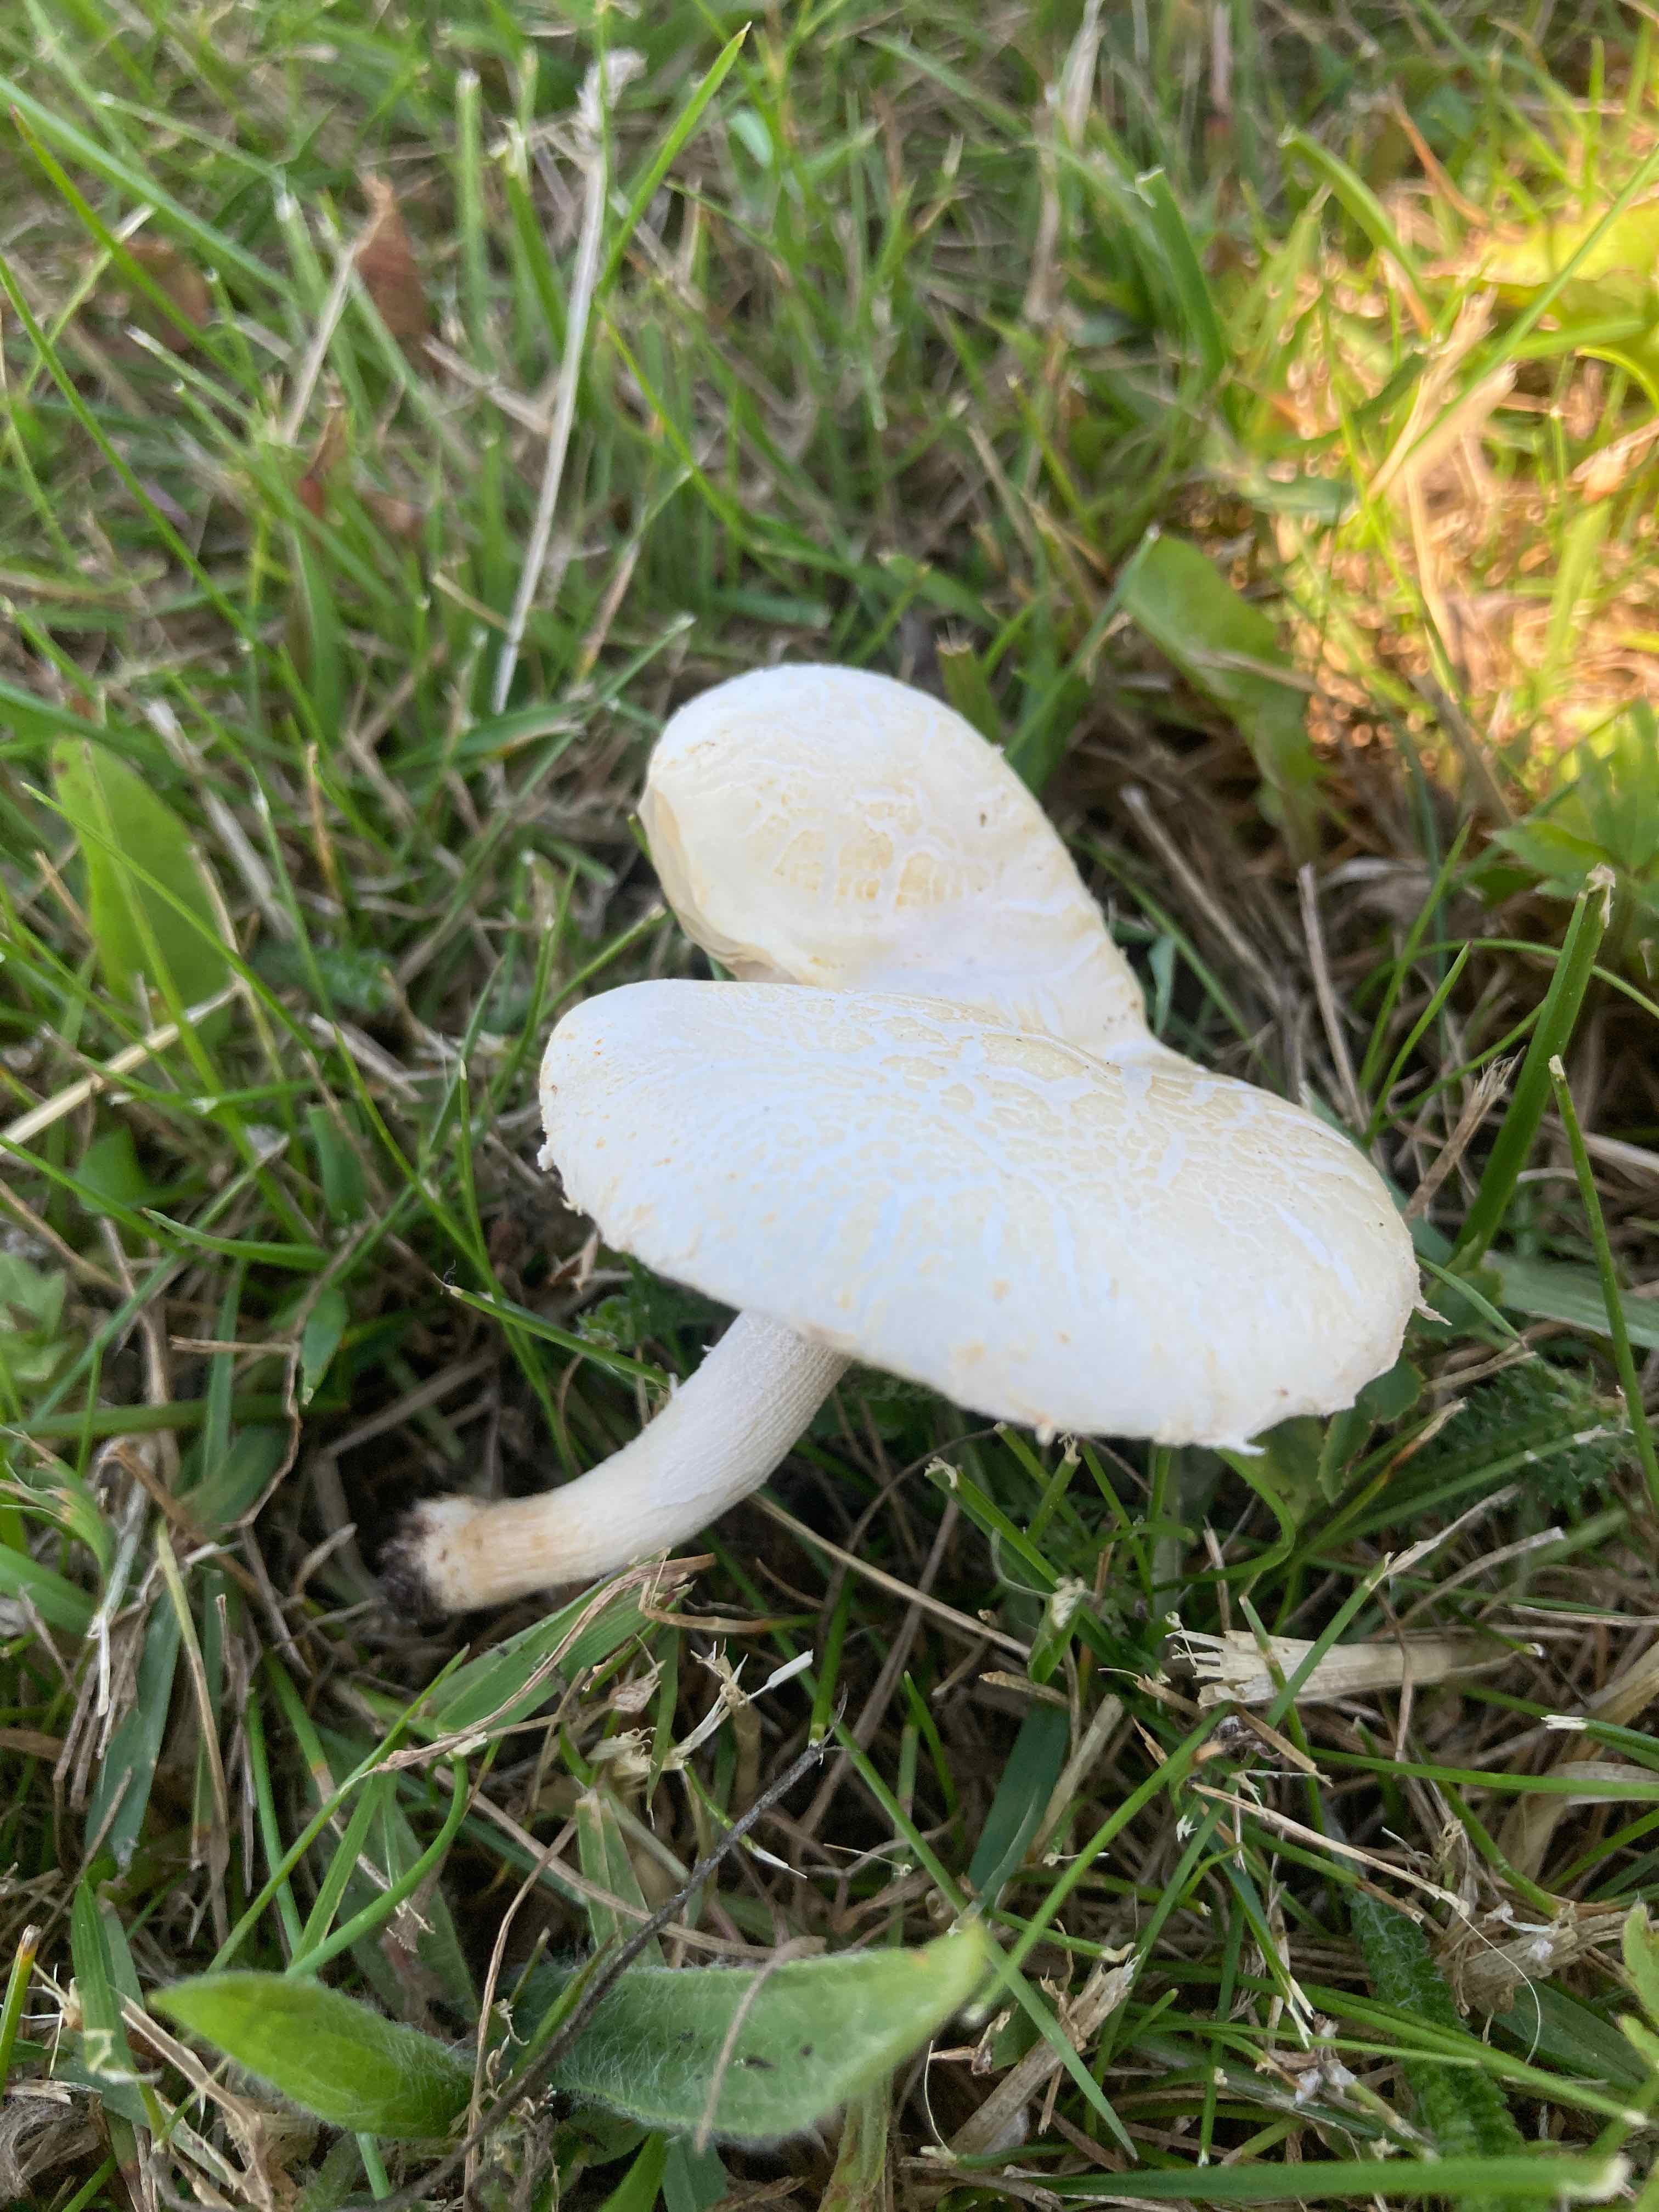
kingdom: Fungi
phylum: Basidiomycota
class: Agaricomycetes
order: Agaricales
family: Strophariaceae
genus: Agrocybe
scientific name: Agrocybe dura
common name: fastkødet agerhat
